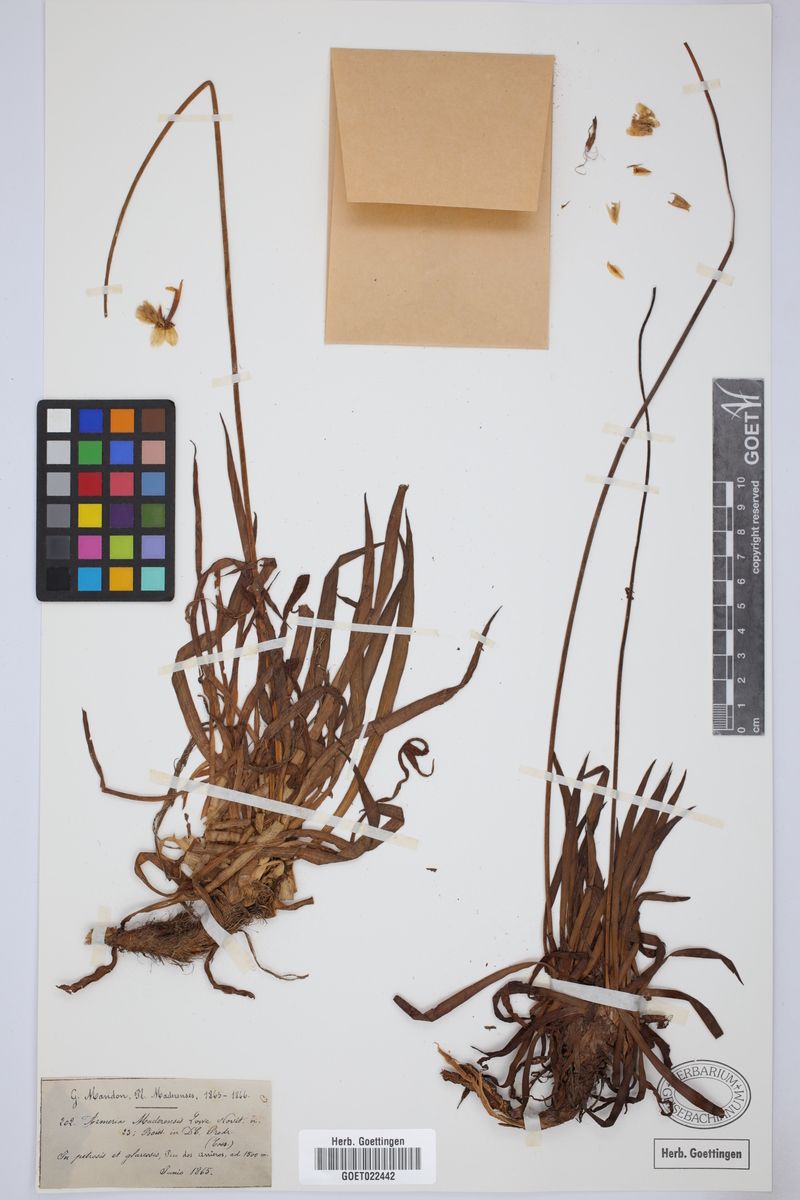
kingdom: Plantae
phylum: Tracheophyta
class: Magnoliopsida
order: Caryophyllales
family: Plumbaginaceae
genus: Armeria
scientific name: Armeria maderensis
